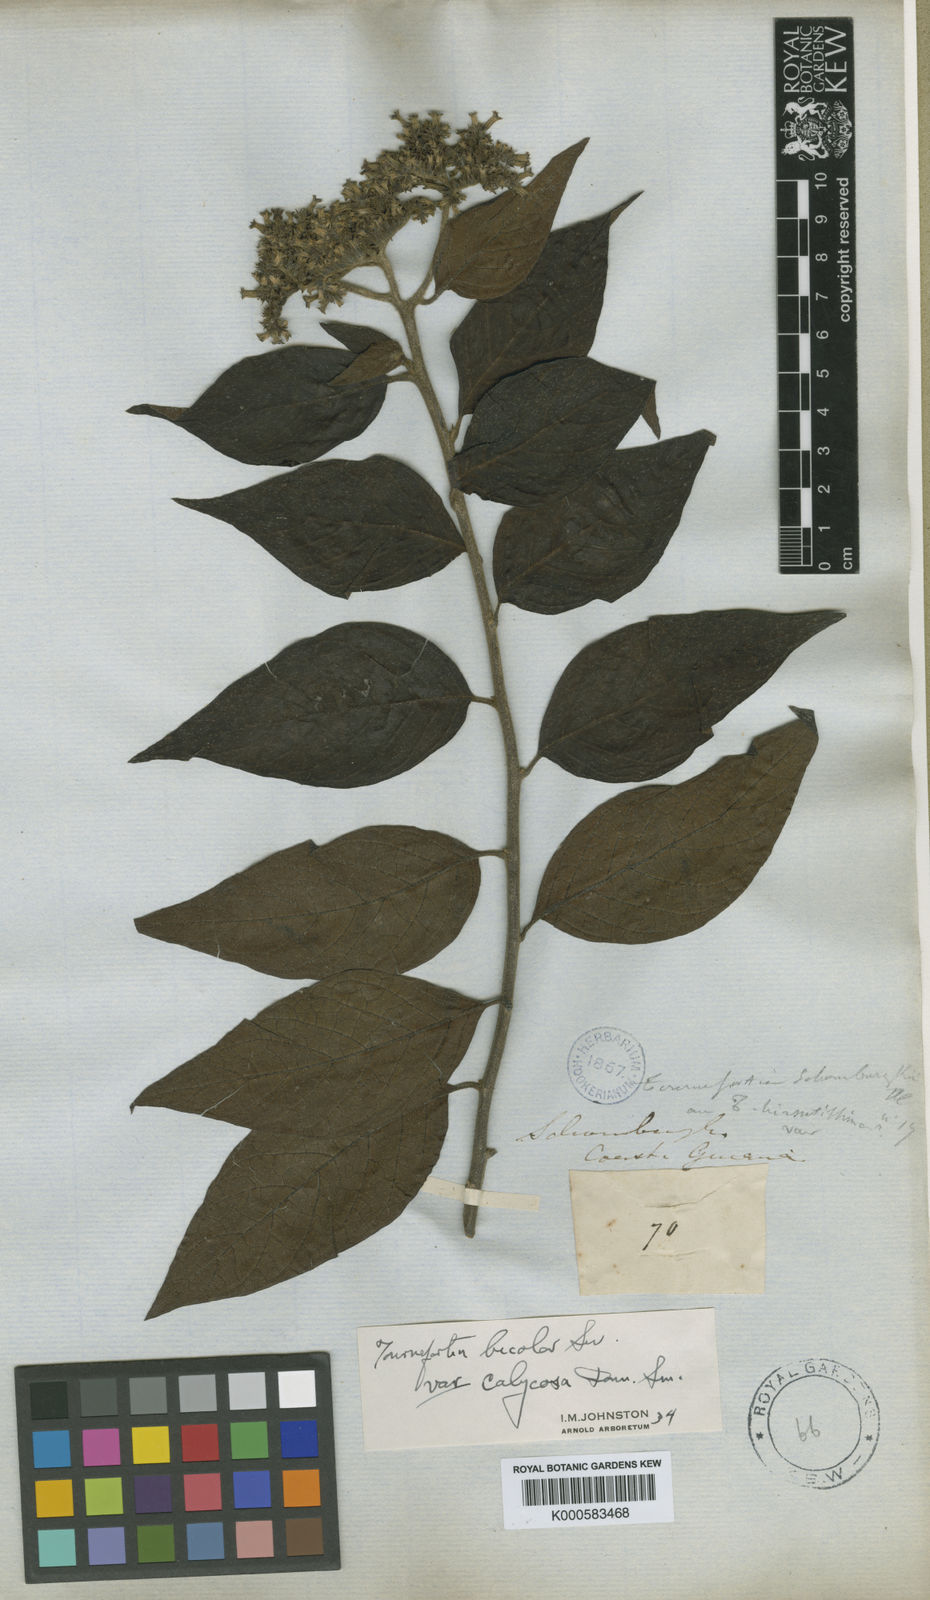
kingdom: Plantae
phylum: Tracheophyta
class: Magnoliopsida
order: Boraginales
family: Heliotropiaceae
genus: Heliotropium
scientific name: Heliotropium verdcourtii
